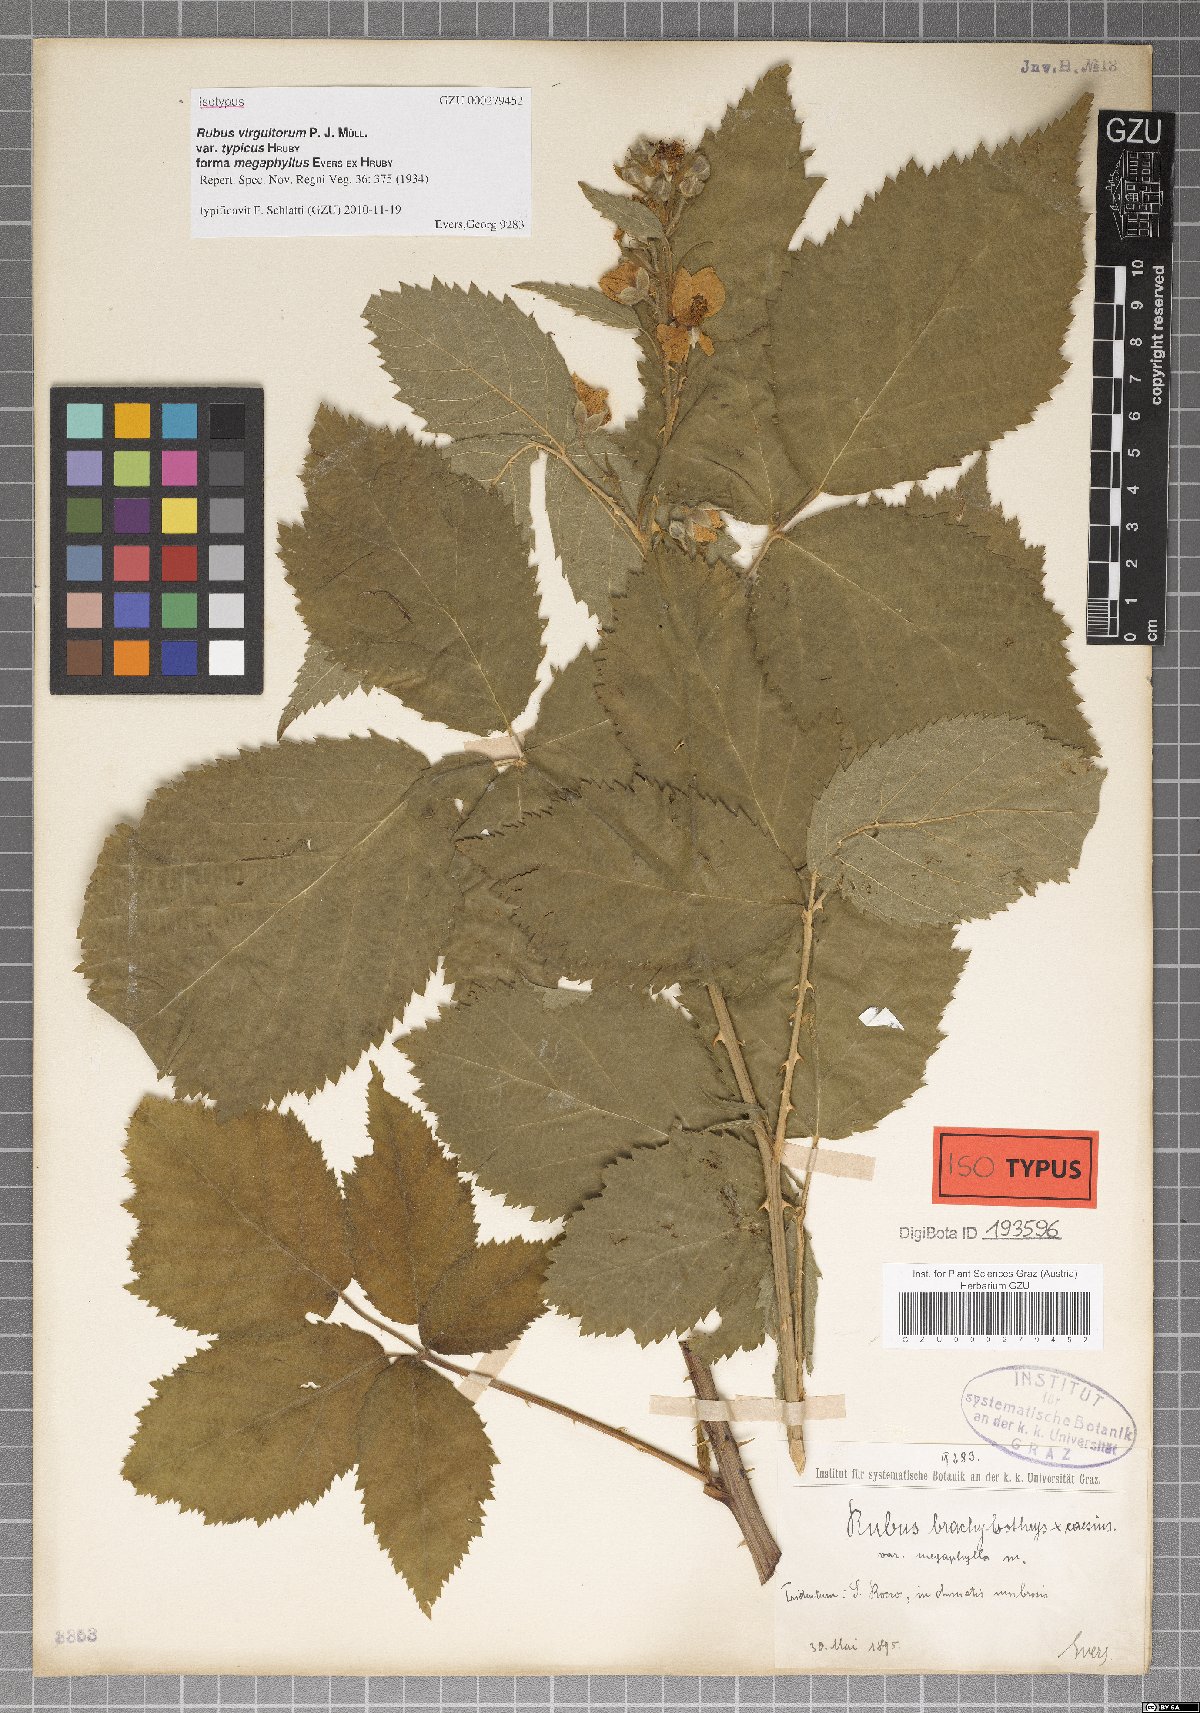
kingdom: Plantae
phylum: Tracheophyta
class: Magnoliopsida
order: Rosales
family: Rosaceae
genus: Rubus
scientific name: Rubus virgultorum
